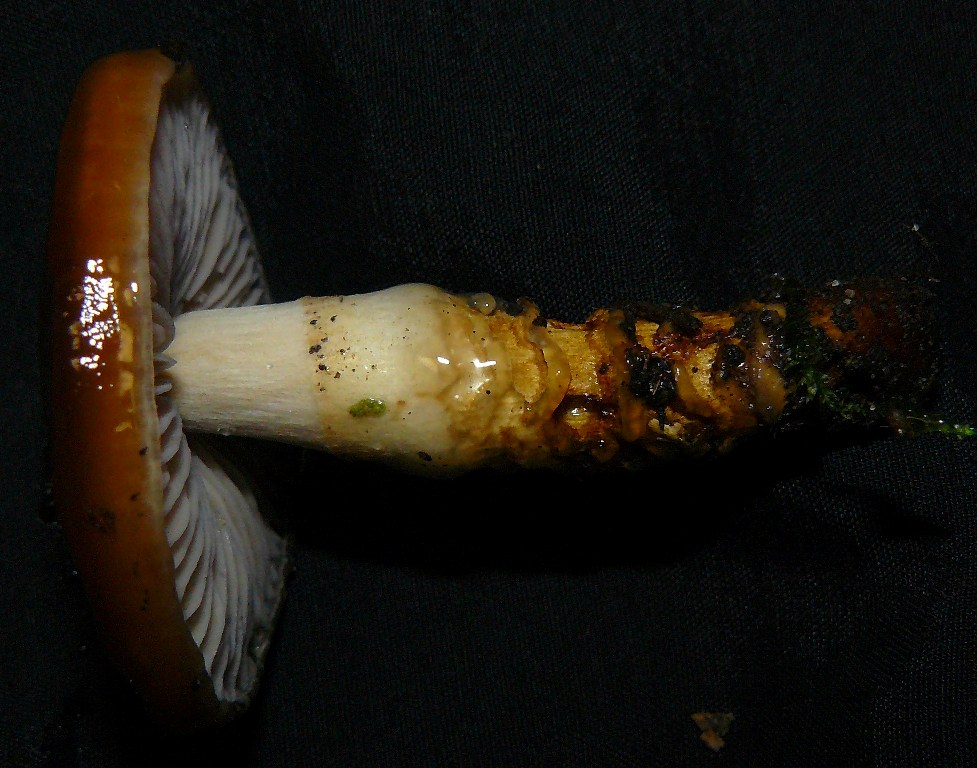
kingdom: Fungi
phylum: Basidiomycota
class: Agaricomycetes
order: Agaricales
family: Cortinariaceae
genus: Cortinarius
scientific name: Cortinarius trivialis
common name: brunslimet slørhat
